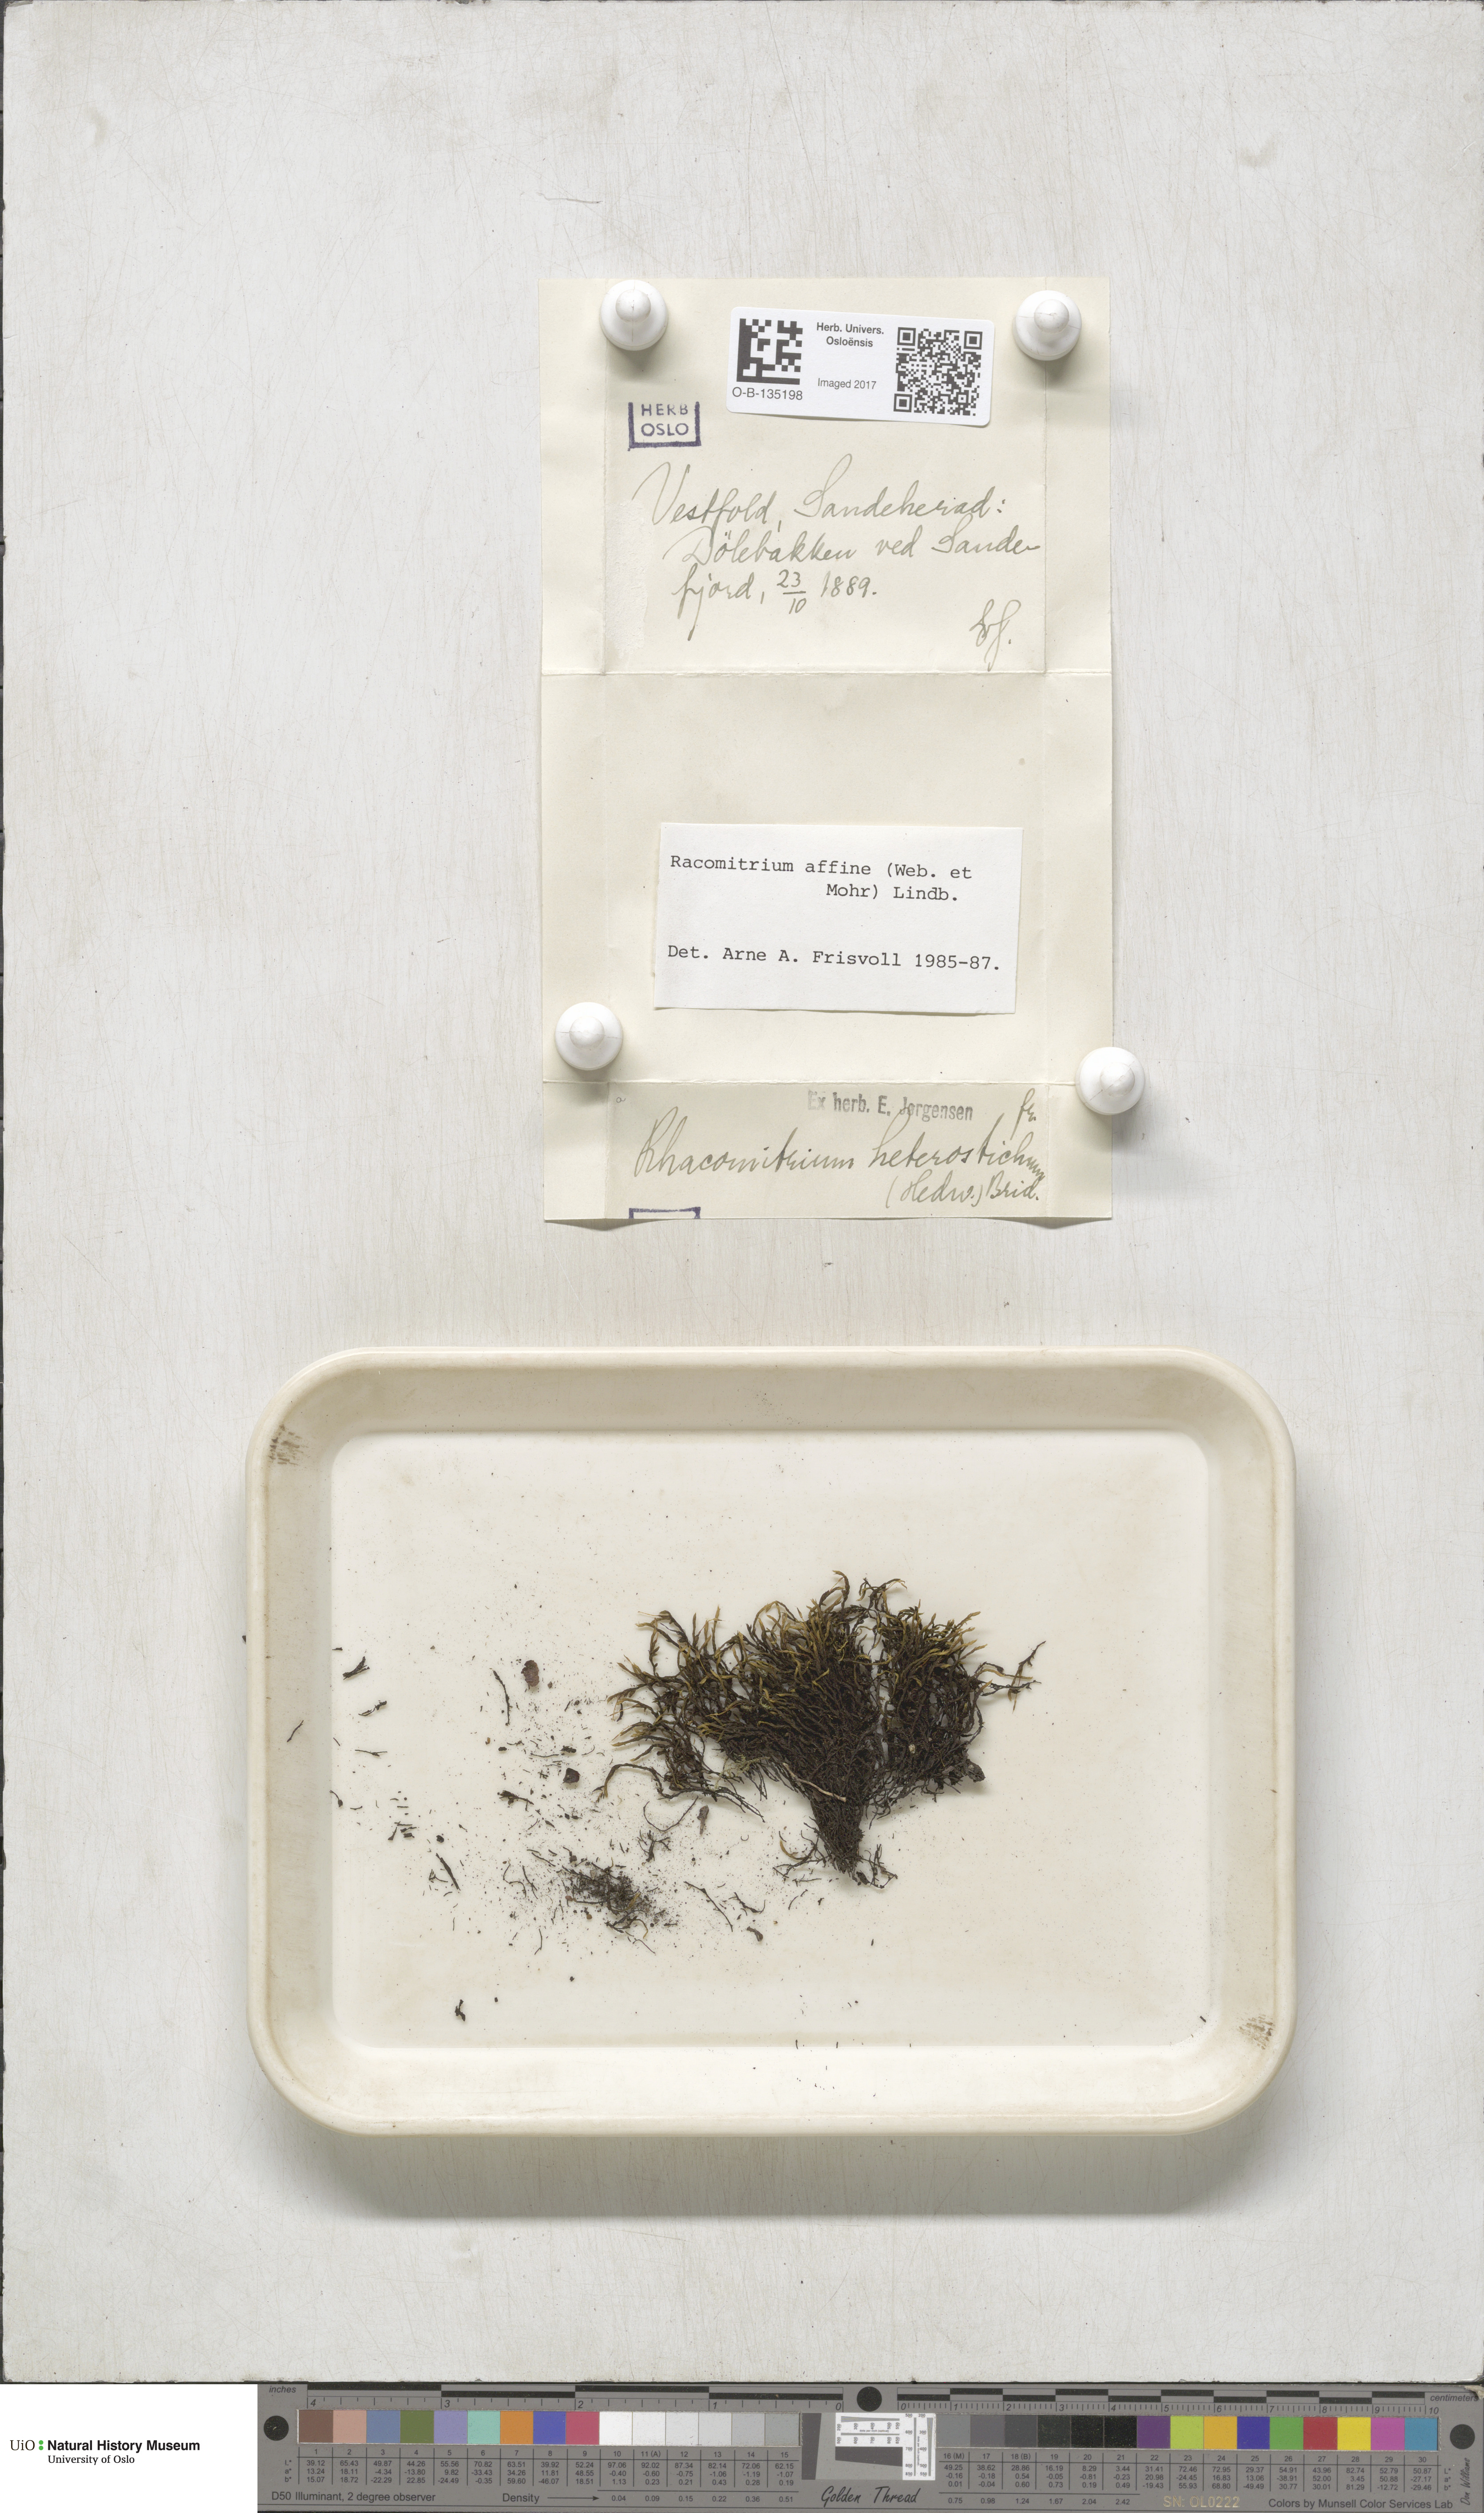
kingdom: Plantae
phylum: Bryophyta
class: Bryopsida
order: Grimmiales
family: Grimmiaceae
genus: Bucklandiella
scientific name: Bucklandiella affinis
